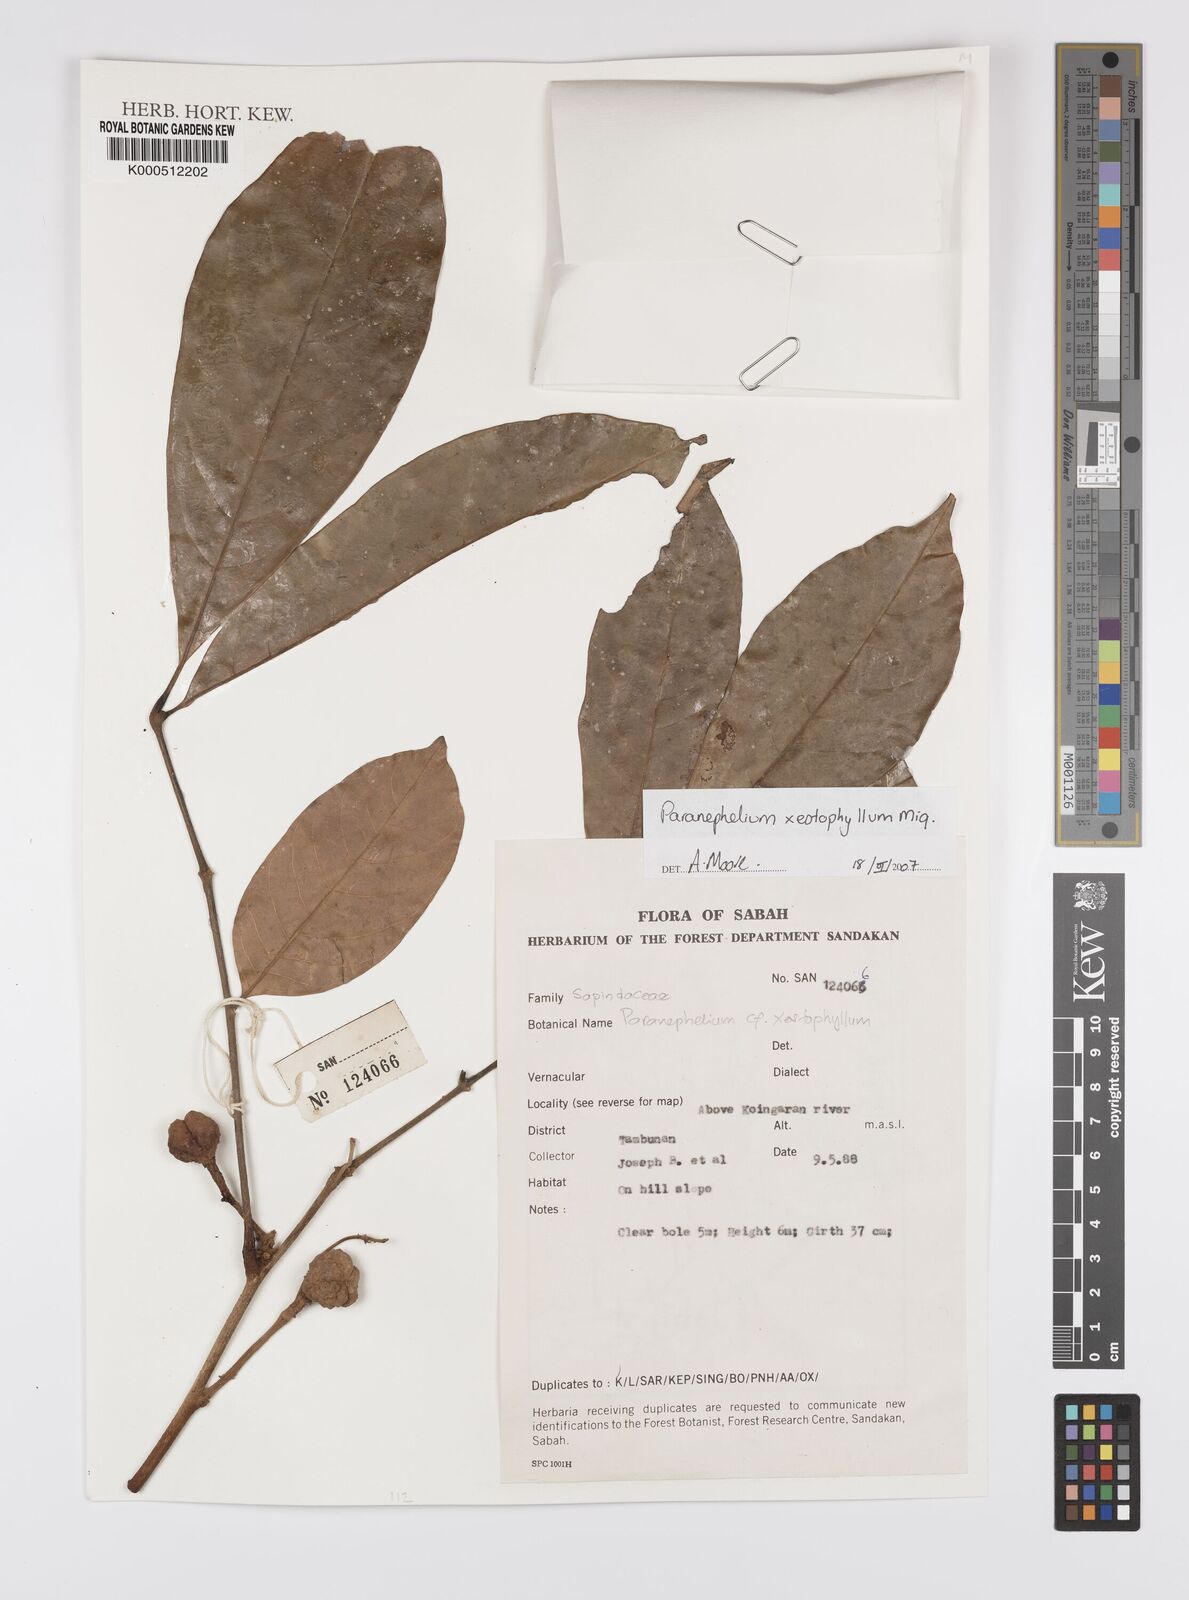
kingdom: Plantae
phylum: Tracheophyta
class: Magnoliopsida
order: Sapindales
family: Sapindaceae
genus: Paranephelium
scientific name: Paranephelium xestophyllum
